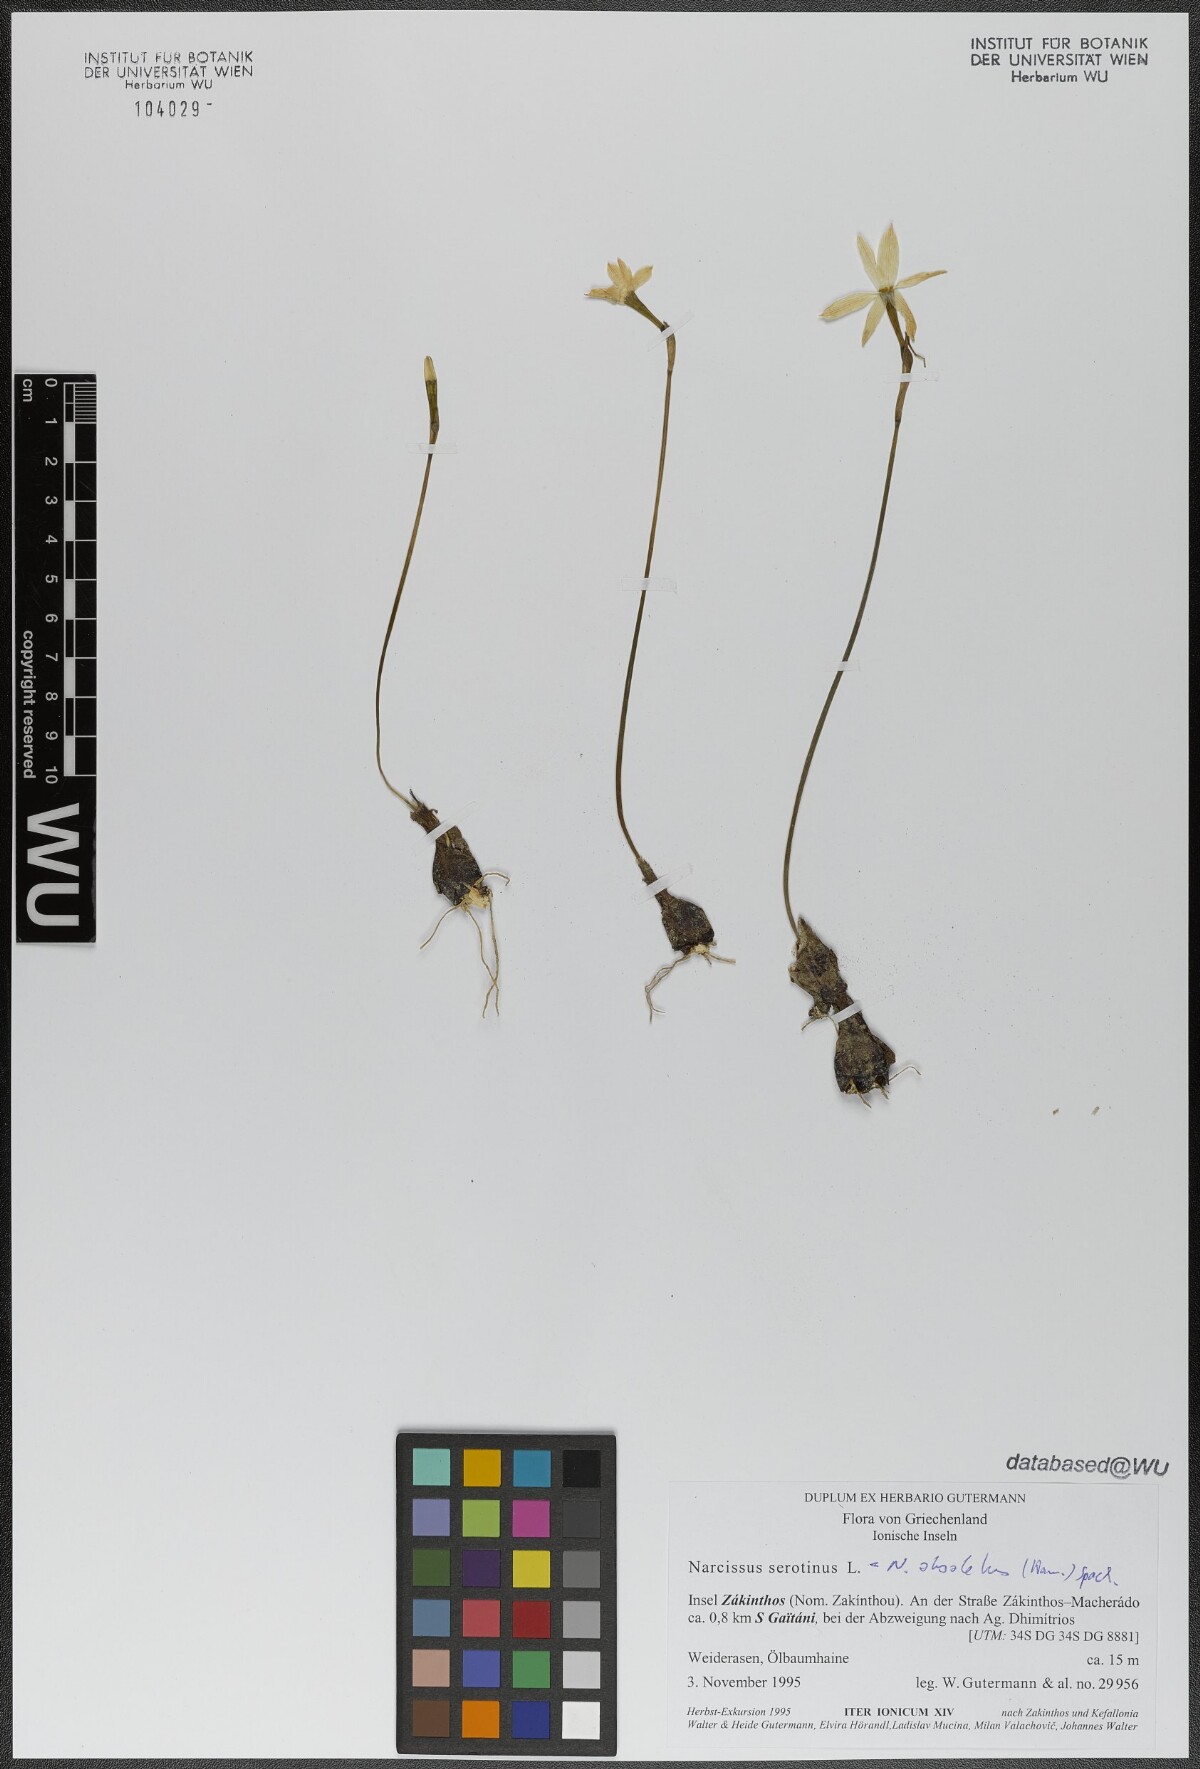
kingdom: Plantae
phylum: Tracheophyta
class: Liliopsida
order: Asparagales
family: Amaryllidaceae
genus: Narcissus
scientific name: Narcissus obsoletus
